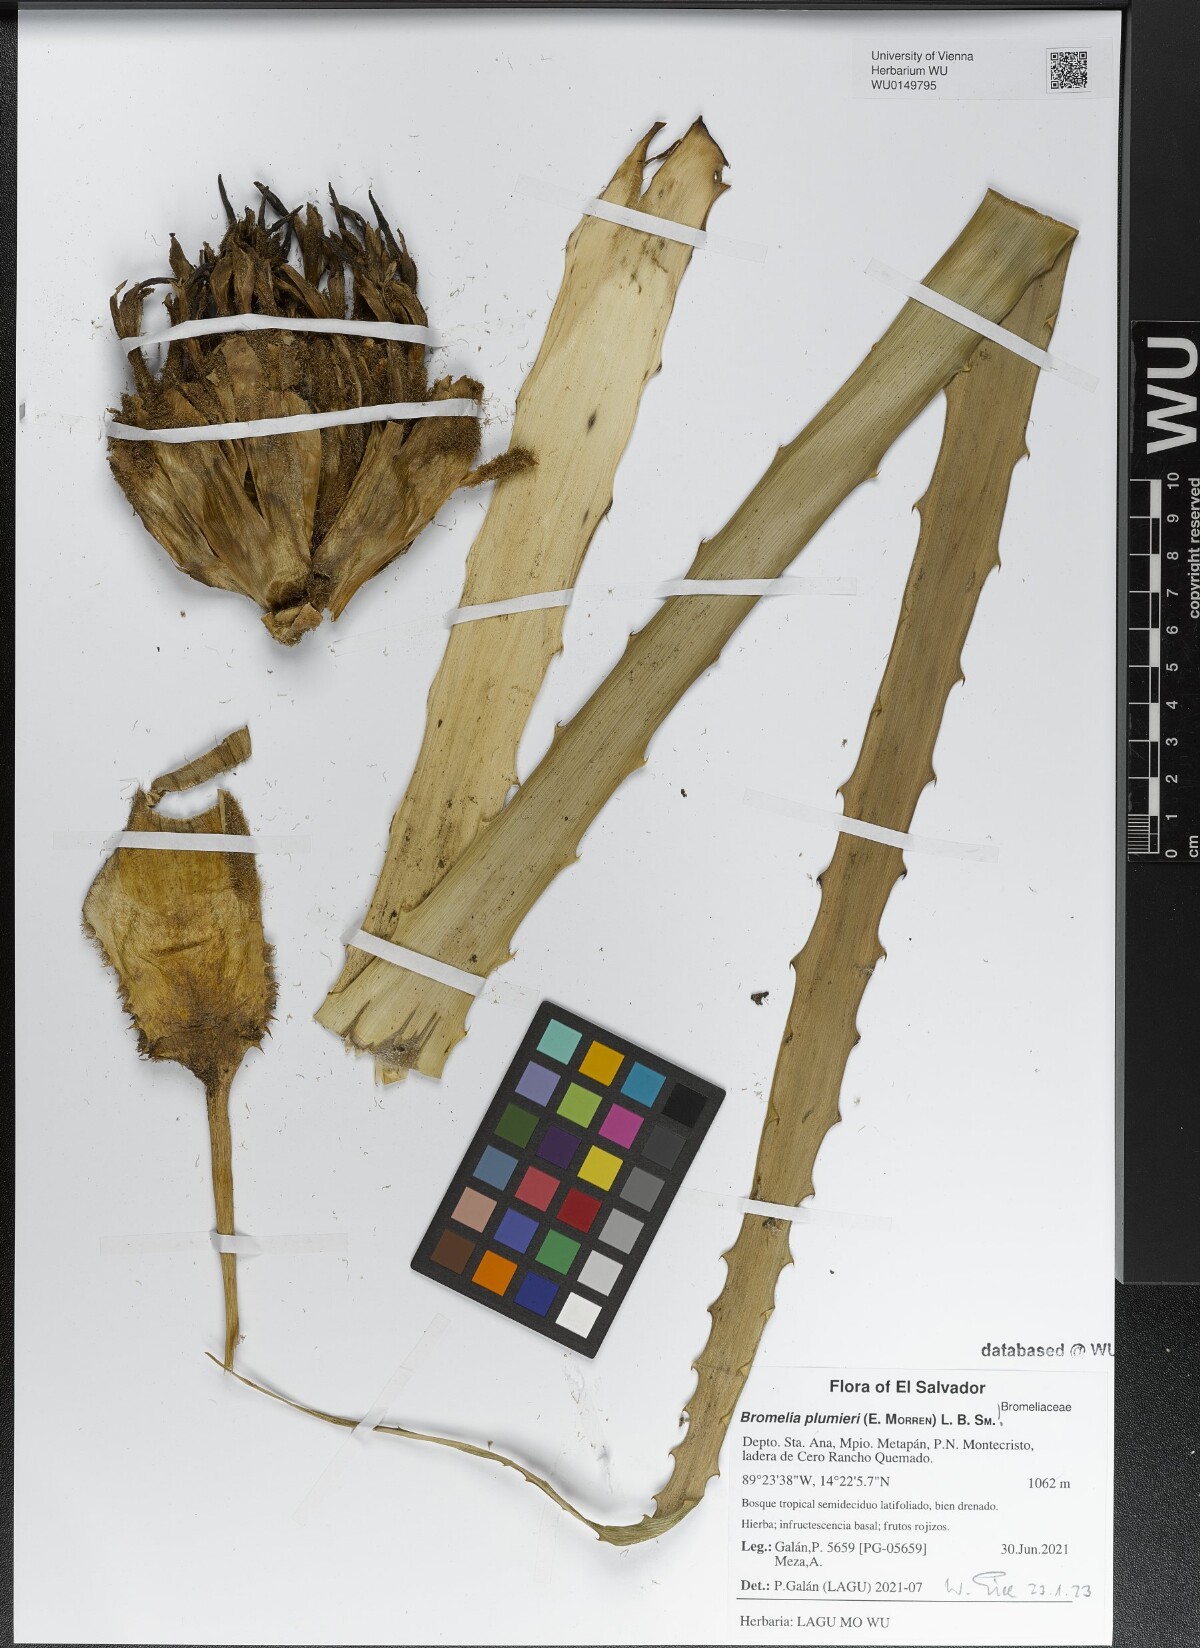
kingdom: Plantae
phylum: Tracheophyta
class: Liliopsida
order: Poales
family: Bromeliaceae
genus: Bromelia
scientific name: Bromelia karatas
